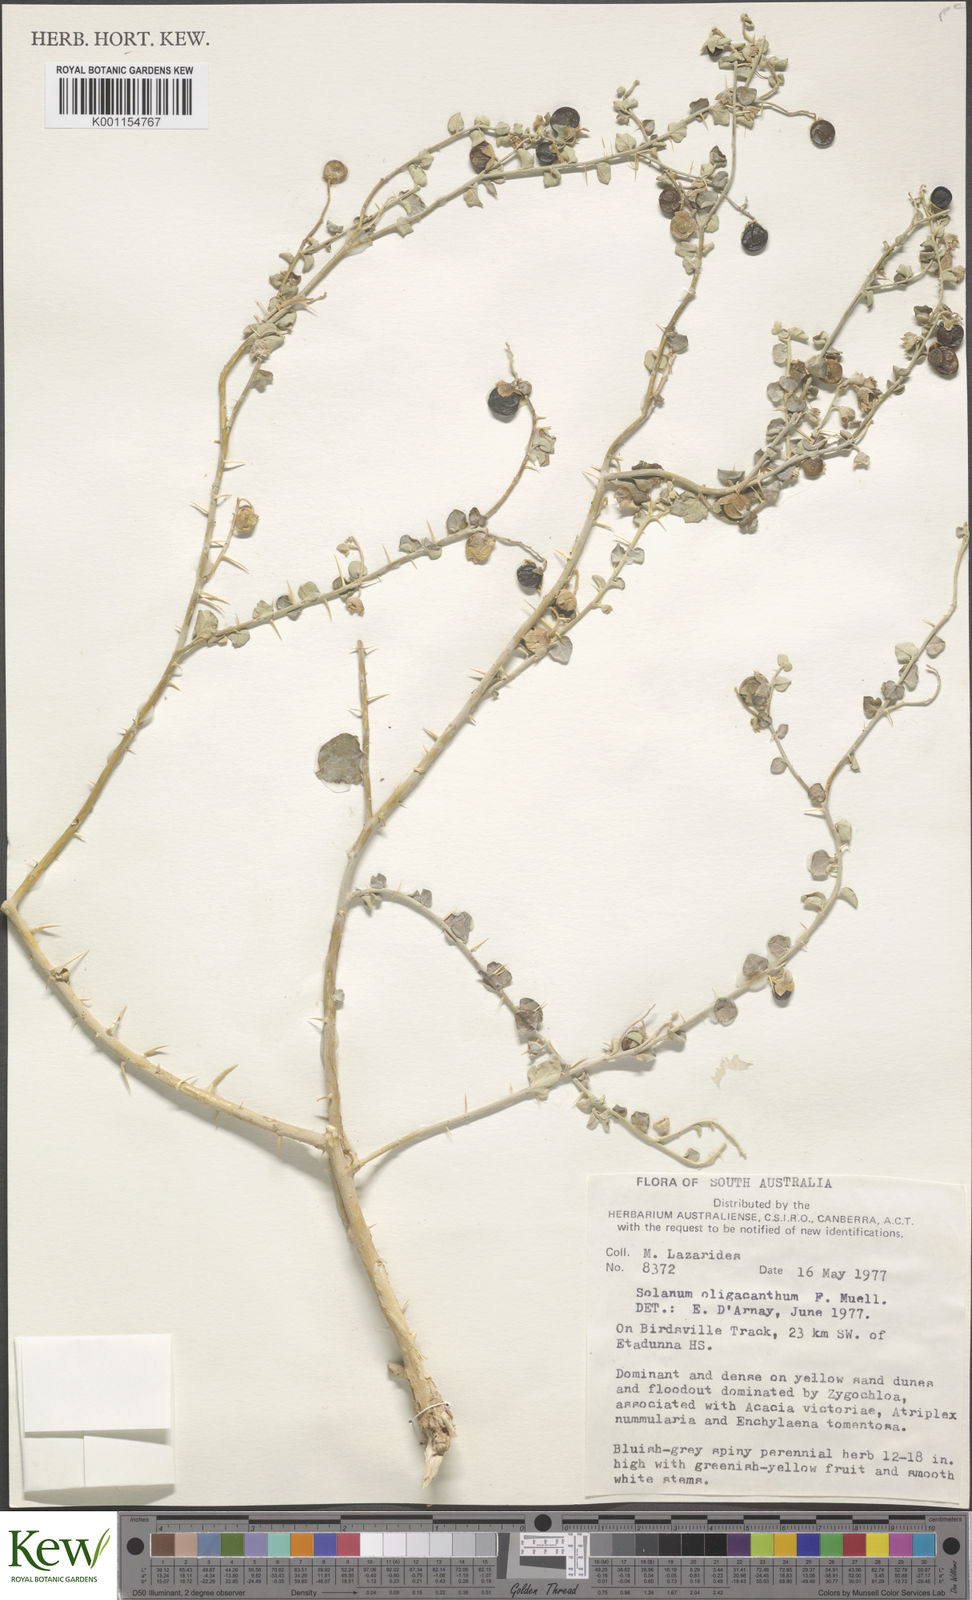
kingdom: Plantae
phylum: Tracheophyta
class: Magnoliopsida
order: Solanales
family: Solanaceae
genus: Solanum
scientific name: Solanum oligacanthum
